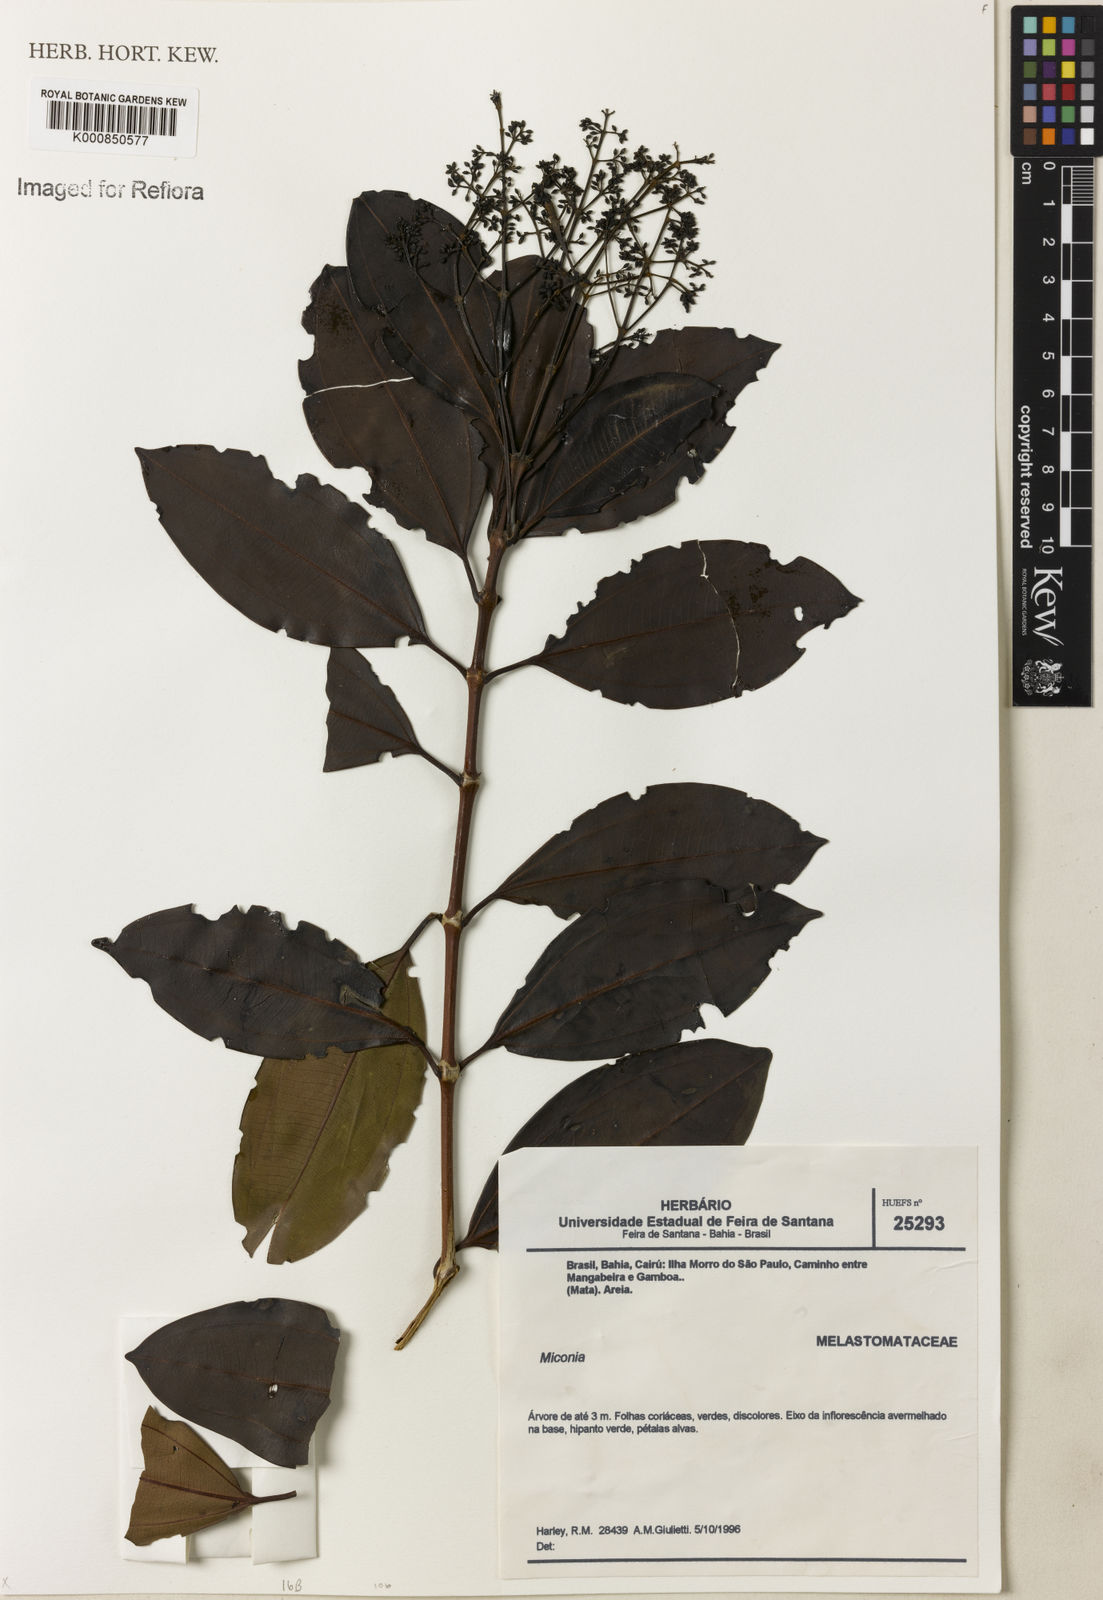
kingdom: Plantae
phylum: Tracheophyta
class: Magnoliopsida
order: Myrtales
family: Melastomataceae
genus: Miconia
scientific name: Miconia
